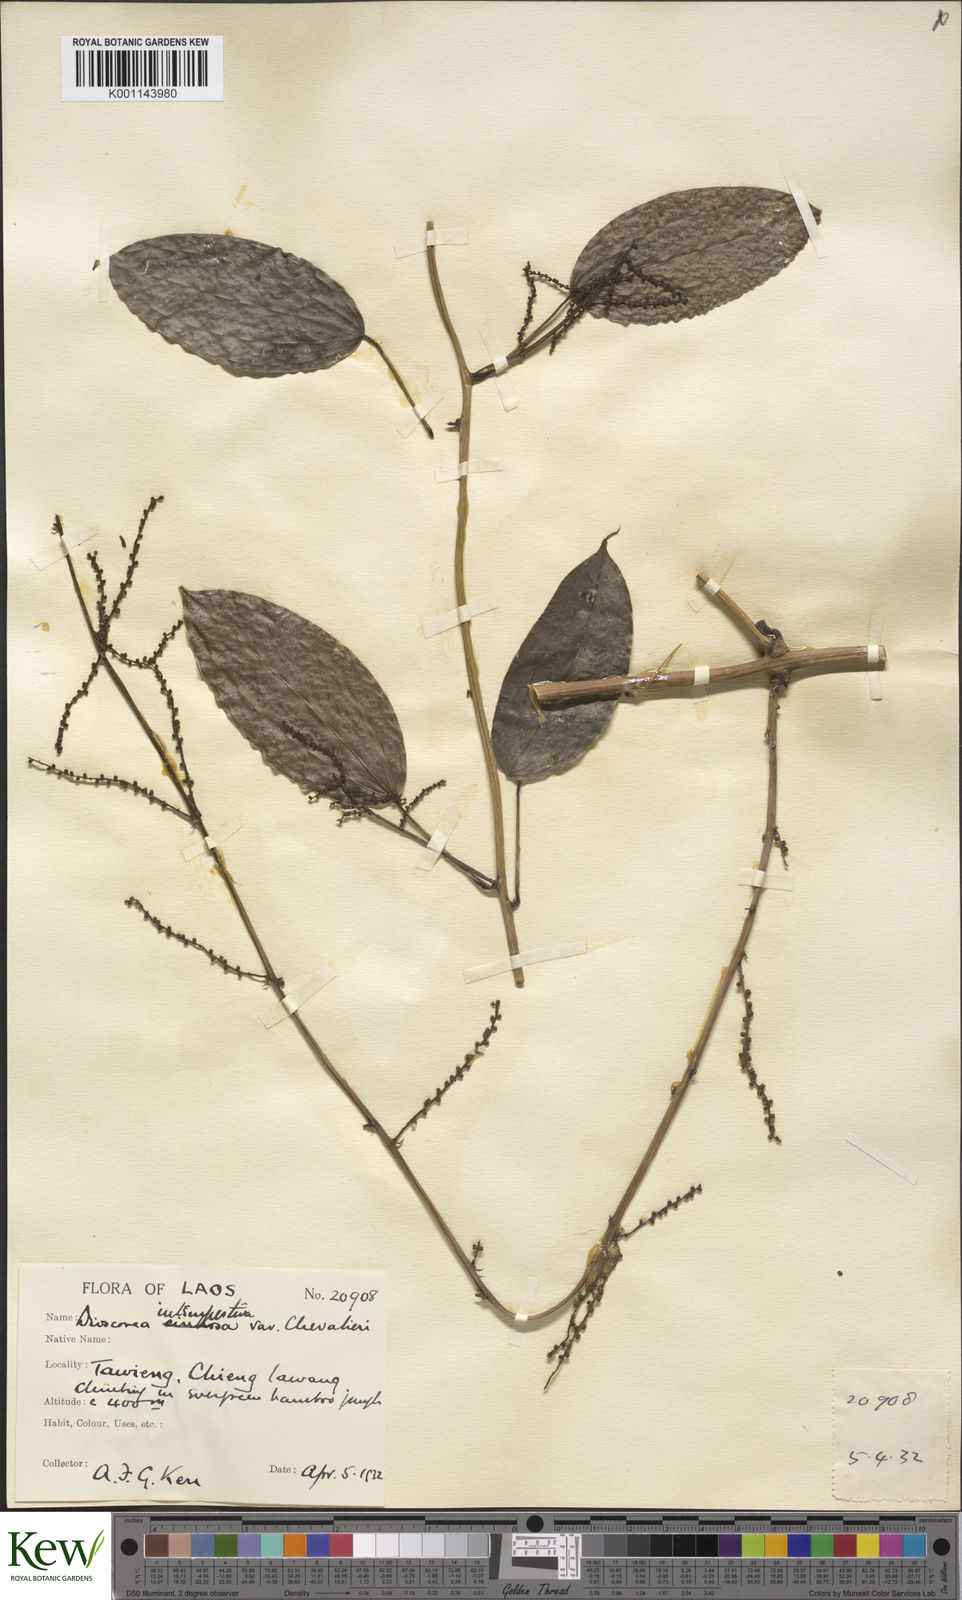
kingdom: Plantae
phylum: Tracheophyta
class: Liliopsida
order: Dioscoreales
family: Dioscoreaceae
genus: Dioscorea
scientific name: Dioscorea cirrhosa
